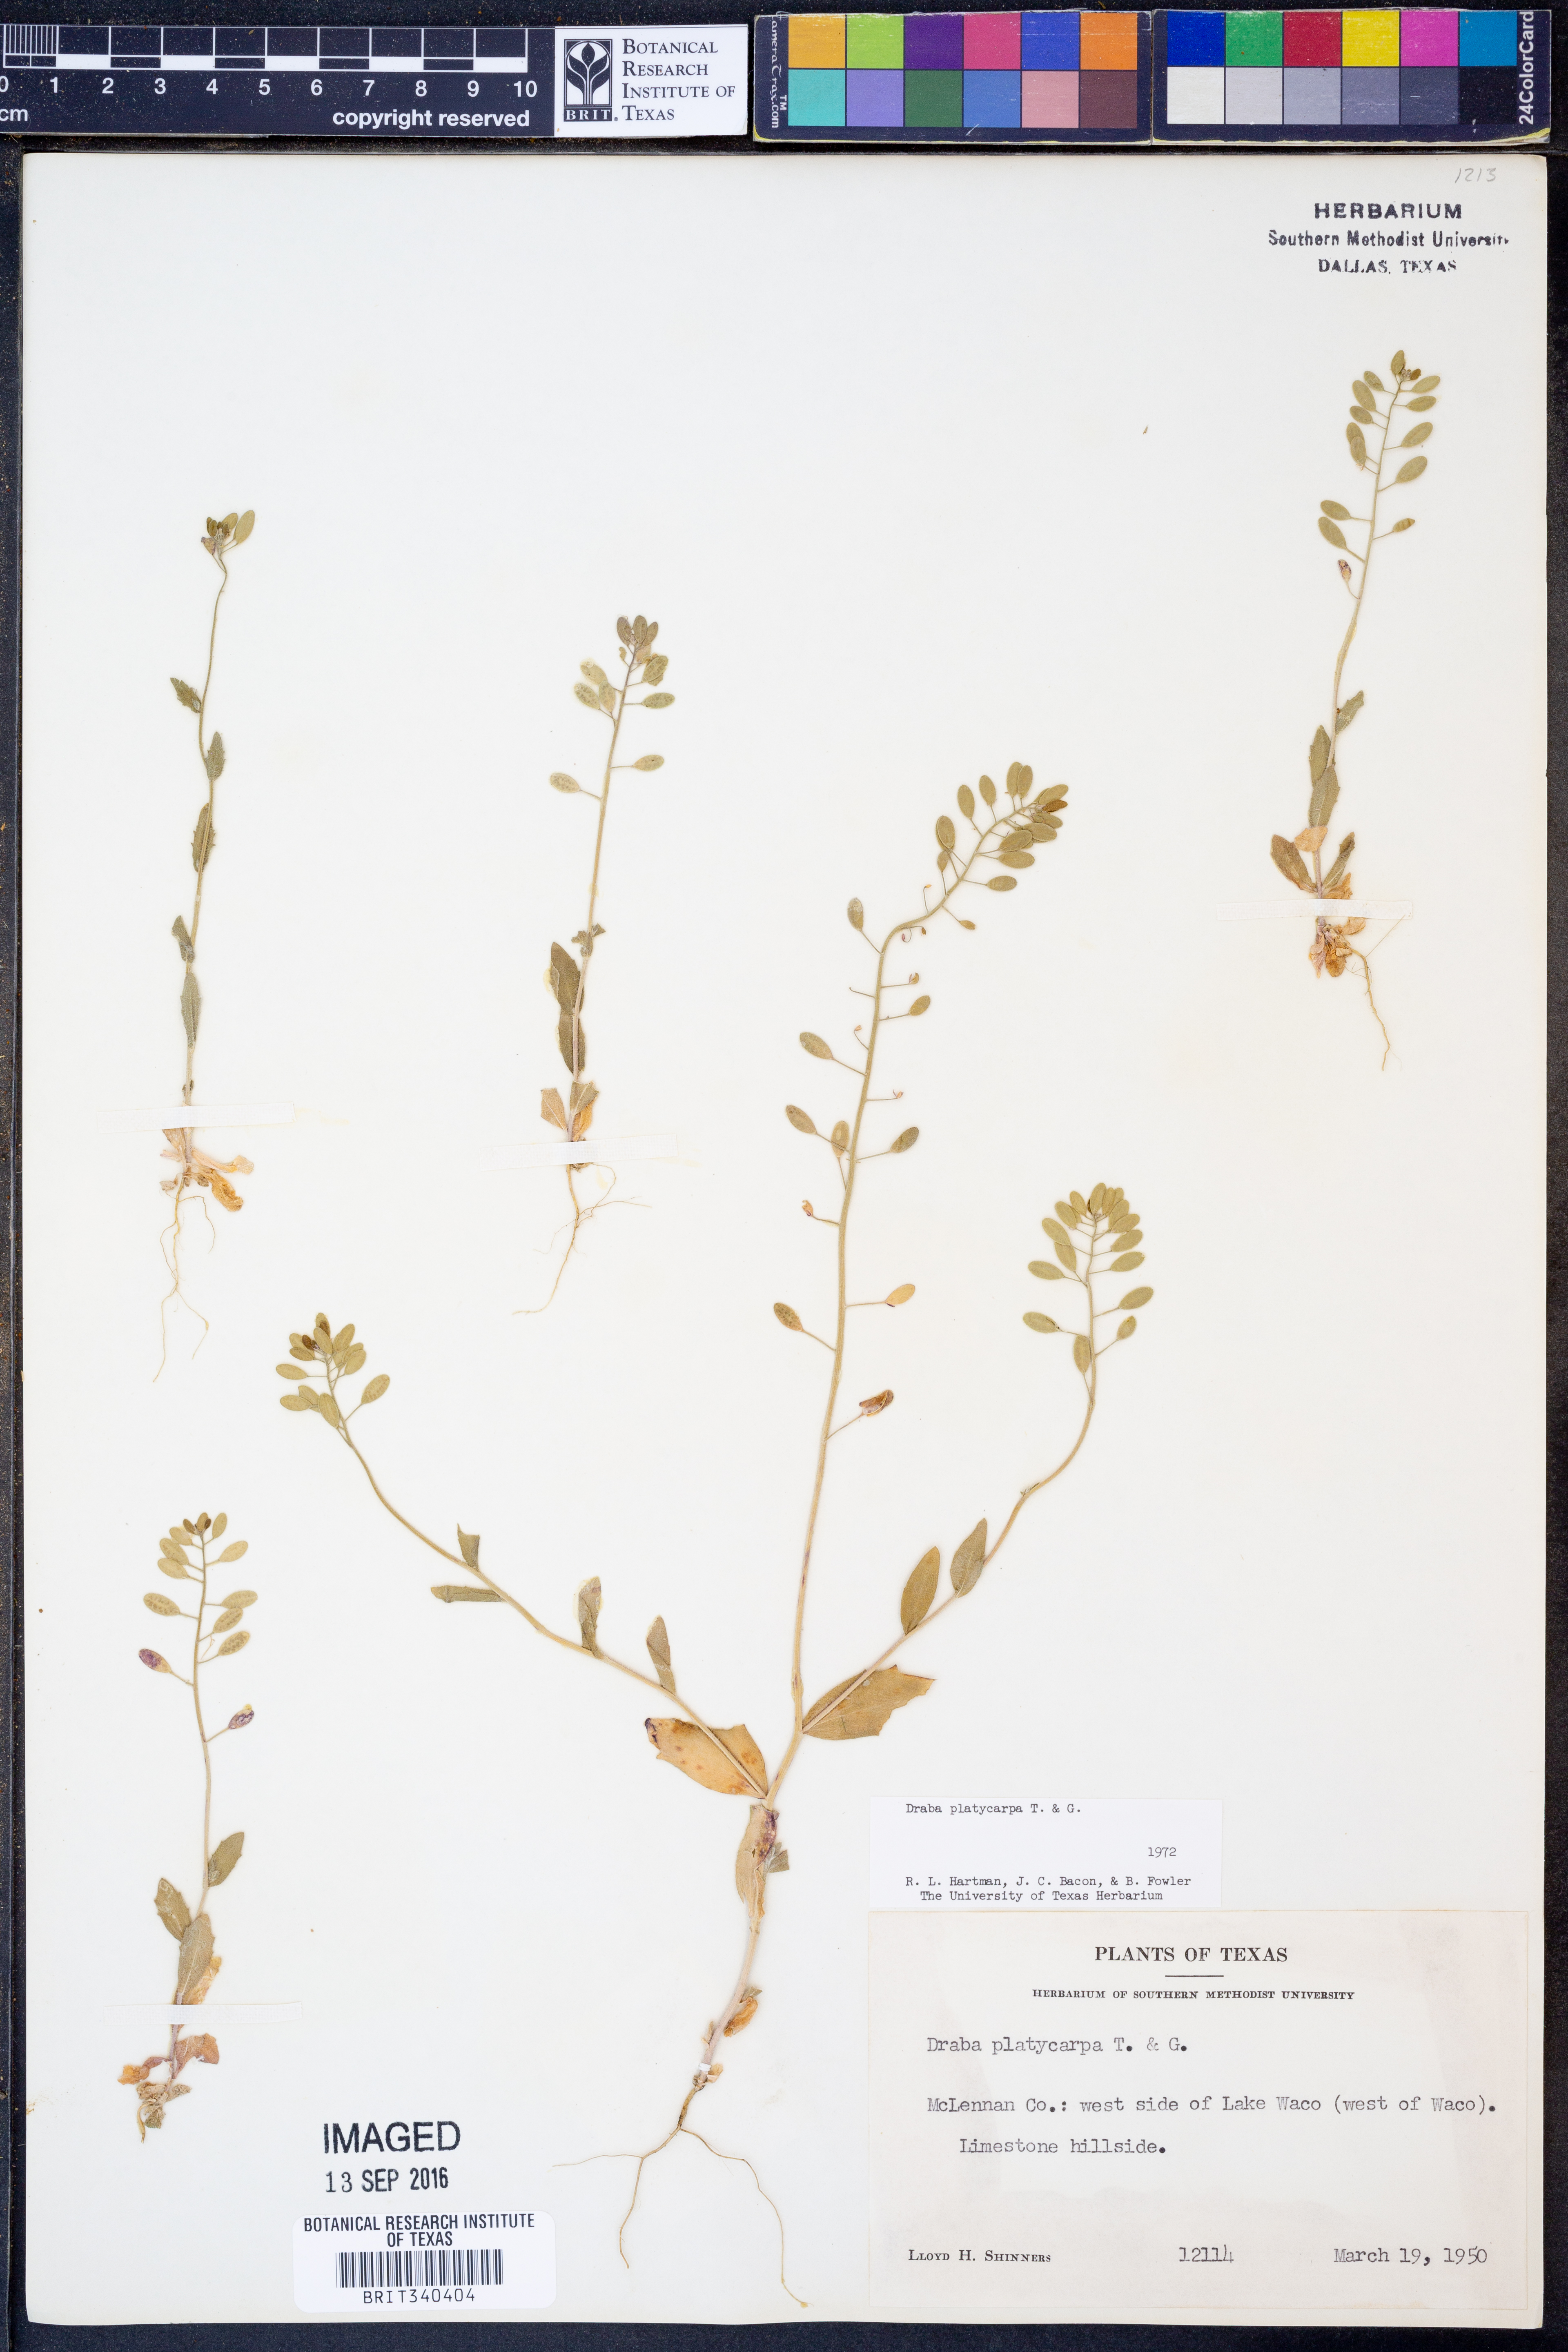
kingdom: Plantae
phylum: Tracheophyta
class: Magnoliopsida
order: Brassicales
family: Brassicaceae
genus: Tomostima
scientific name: Tomostima platycarpa
